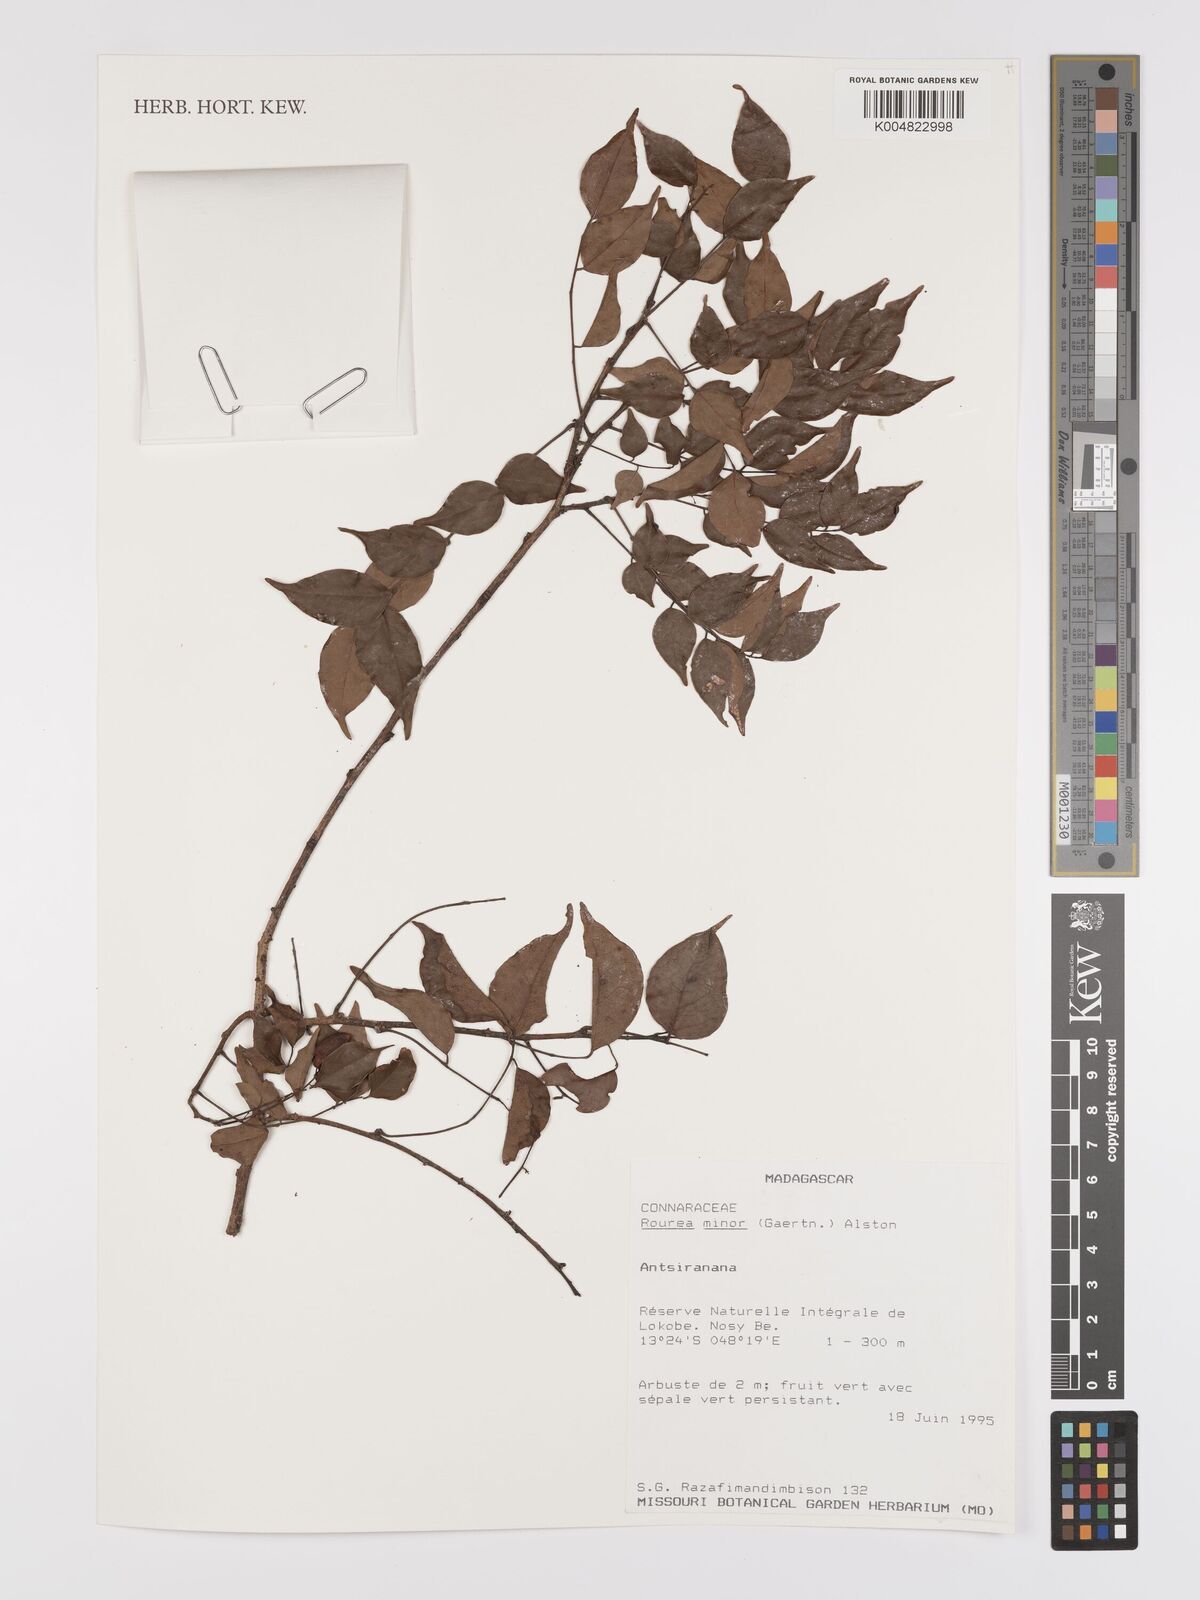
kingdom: Plantae
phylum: Tracheophyta
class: Magnoliopsida
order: Oxalidales
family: Connaraceae
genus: Rourea
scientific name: Rourea minor
